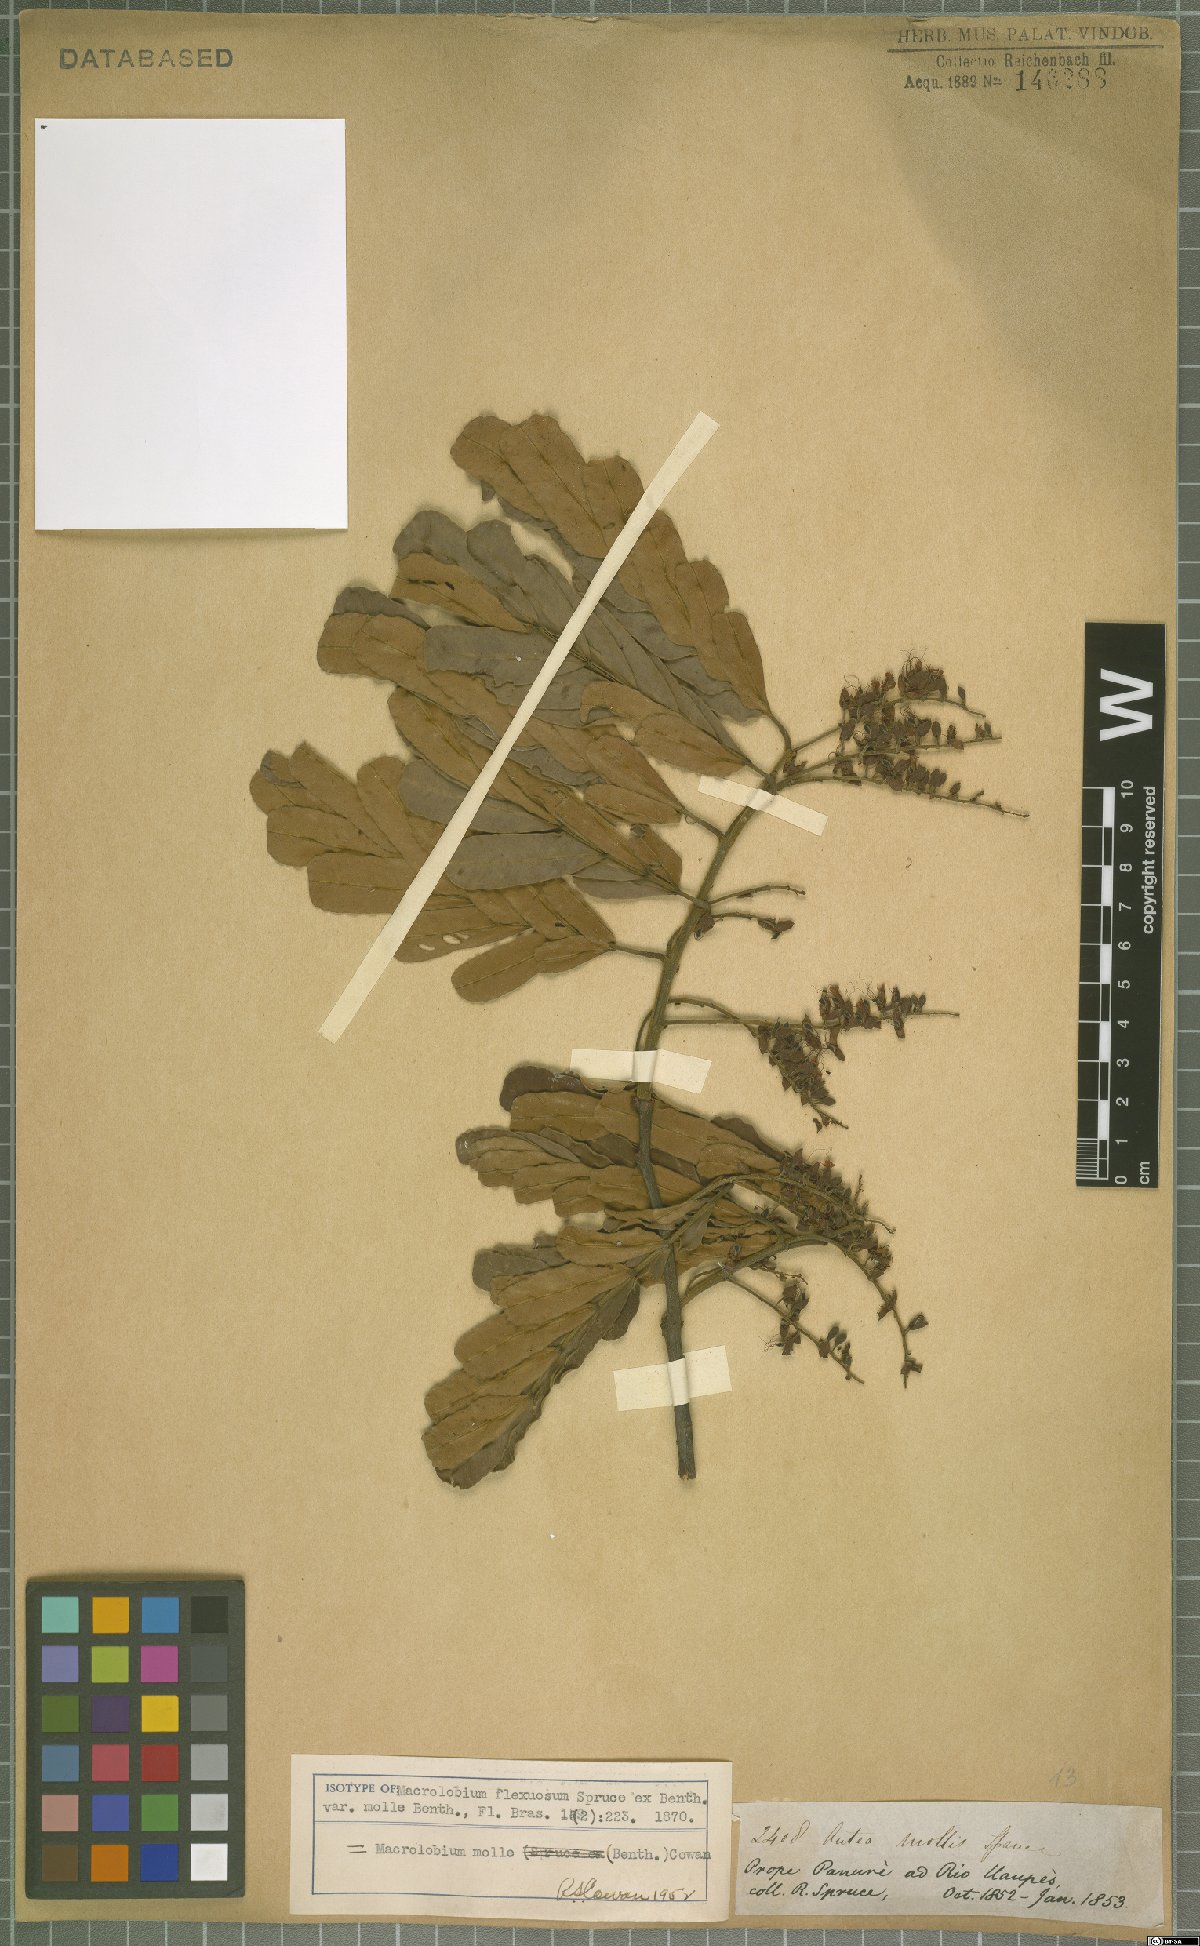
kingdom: Plantae
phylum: Tracheophyta
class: Magnoliopsida
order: Fabales
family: Fabaceae
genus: Macrolobium
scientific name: Macrolobium molle
